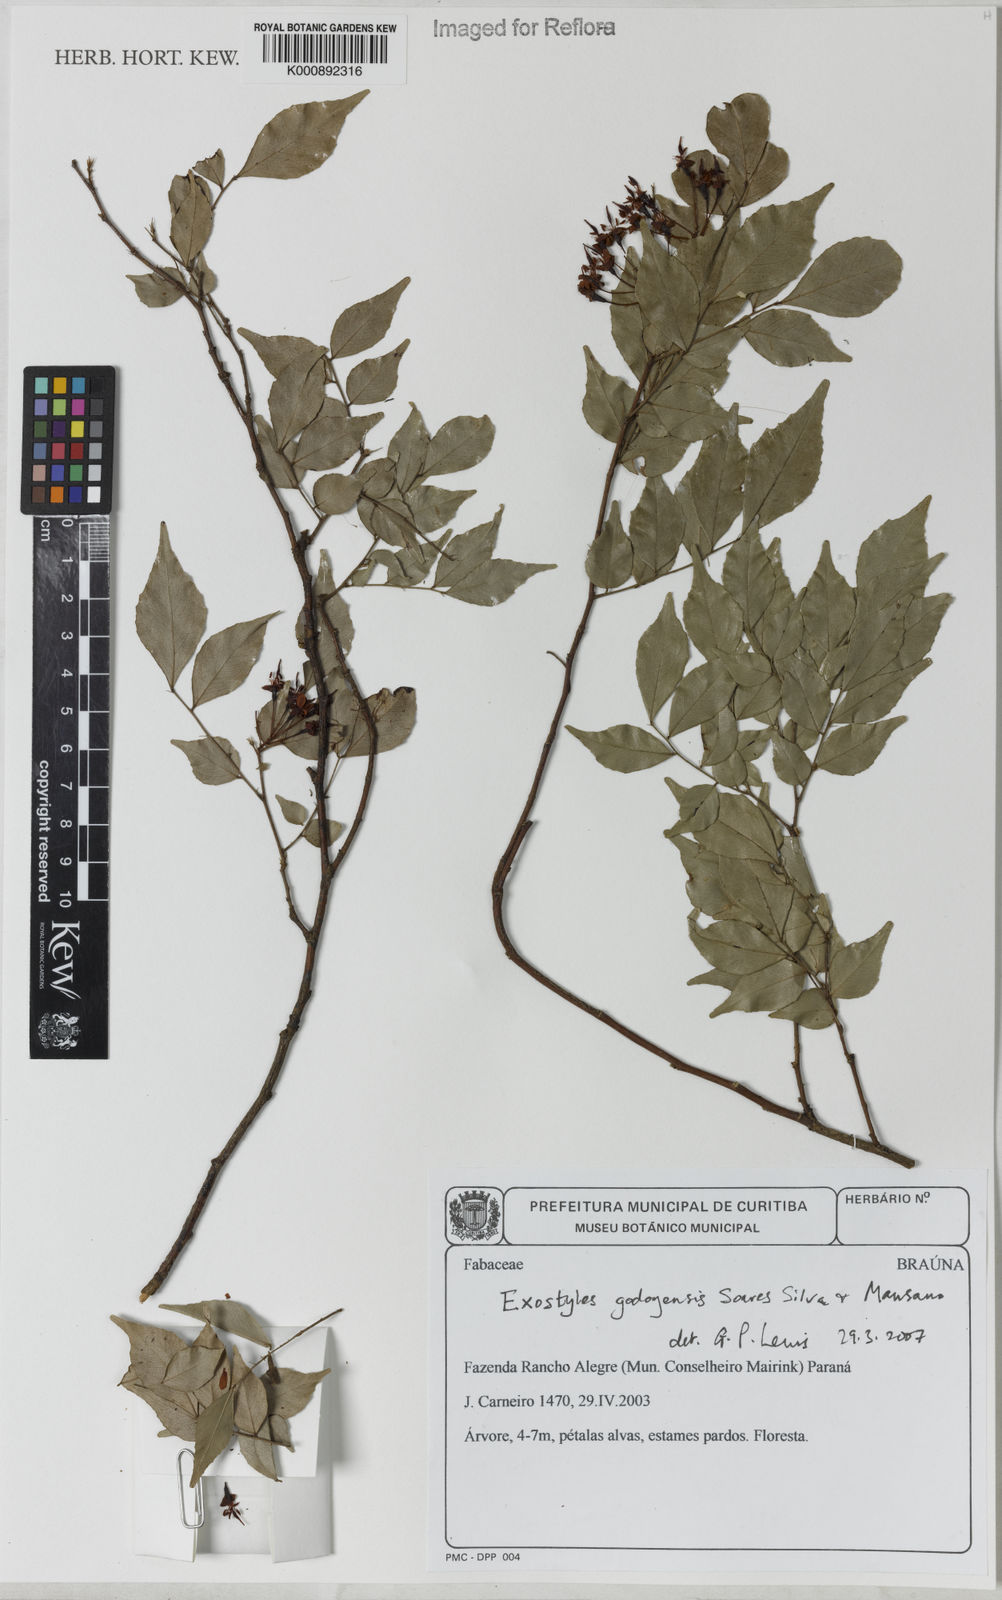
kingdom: Plantae
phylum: Tracheophyta
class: Magnoliopsida
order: Fabales
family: Fabaceae
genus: Exostyles
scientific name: Exostyles godoyensis
